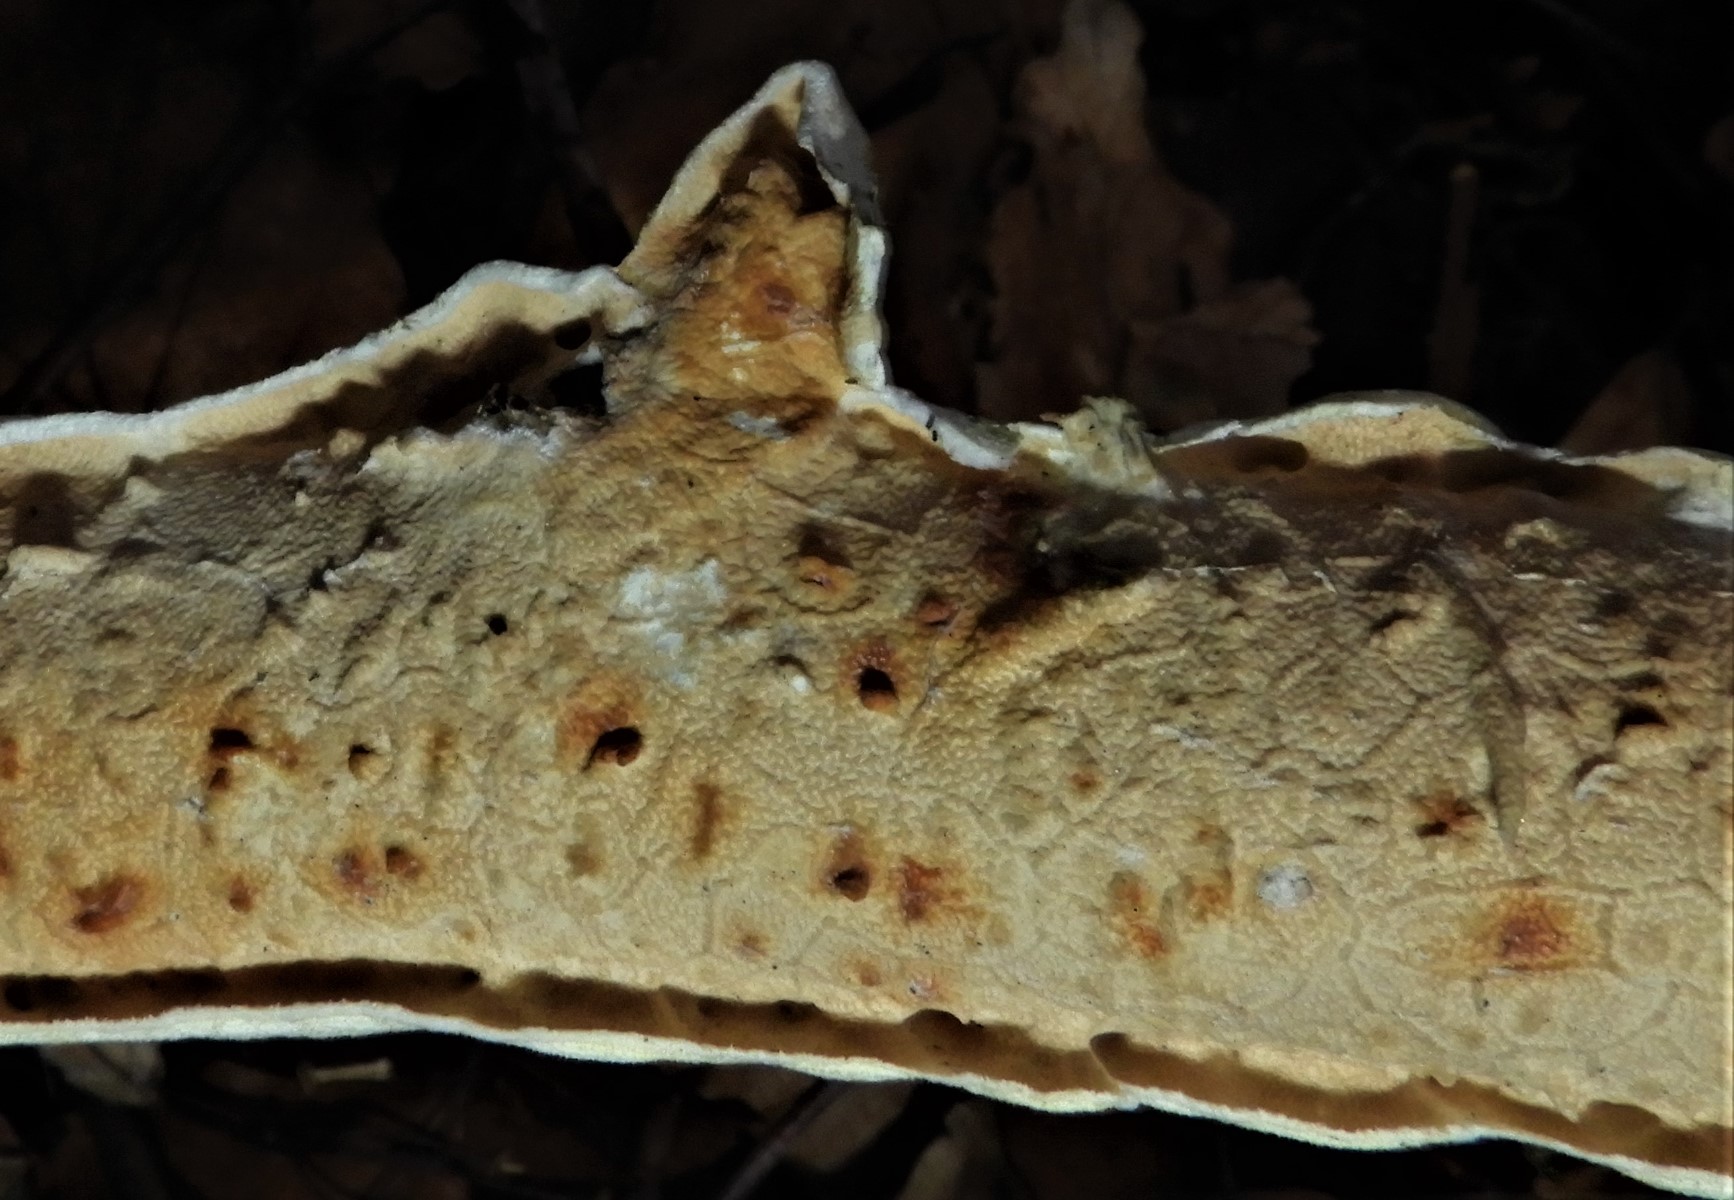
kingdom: Fungi
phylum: Basidiomycota
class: Agaricomycetes
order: Polyporales
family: Irpicaceae
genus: Byssomerulius
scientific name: Byssomerulius corium
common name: læder-åresvamp
